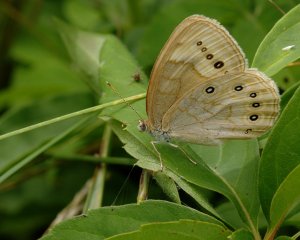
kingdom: Animalia
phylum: Arthropoda
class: Insecta
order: Lepidoptera
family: Nymphalidae
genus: Lethe
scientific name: Lethe eurydice
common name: Eyed Brown
